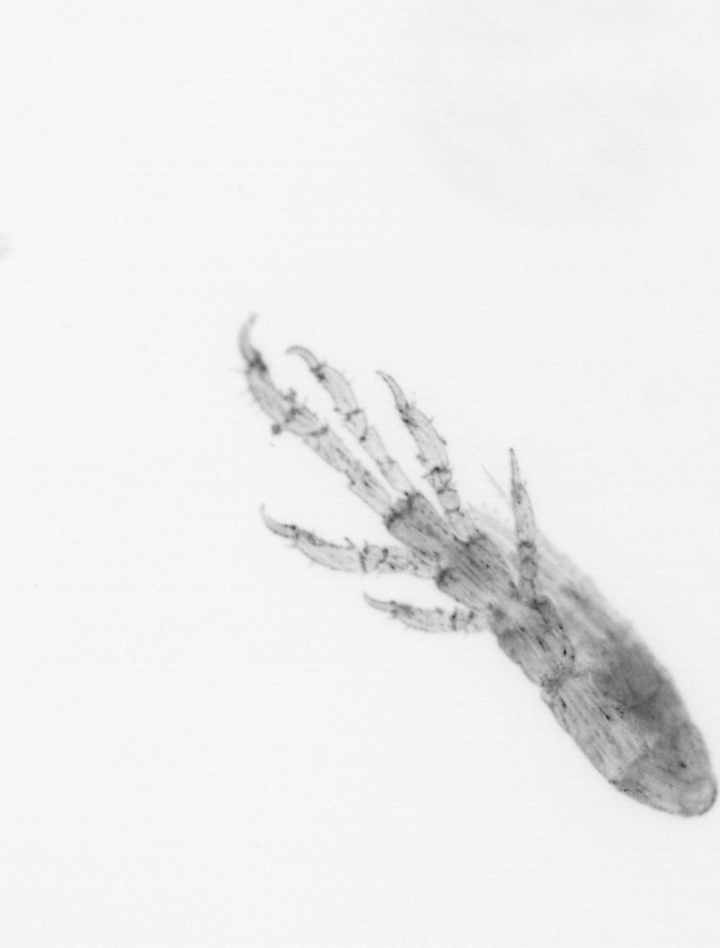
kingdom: Animalia
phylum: Arthropoda
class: Arachnida
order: Trombidiformes
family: Halacaridae
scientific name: Halacaridae
